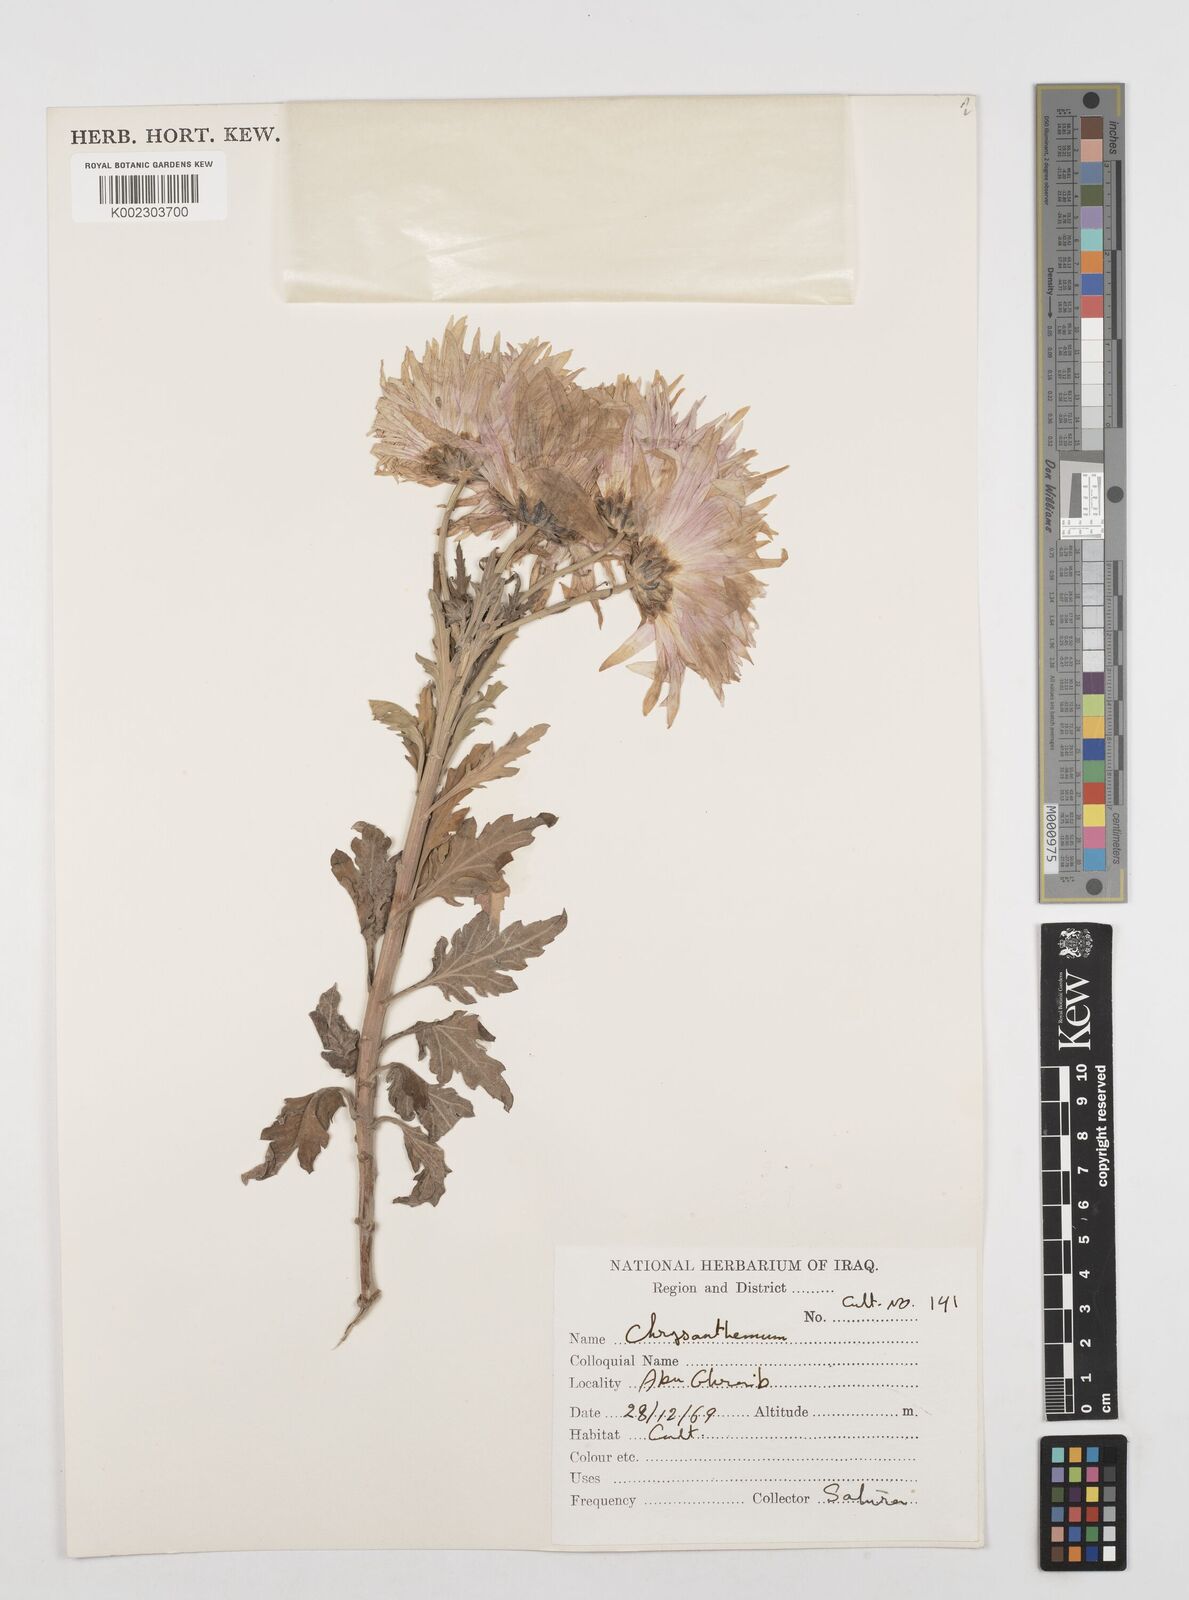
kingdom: Plantae
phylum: Tracheophyta
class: Magnoliopsida
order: Asterales
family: Asteraceae
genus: Tanacetum
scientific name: Tanacetum
